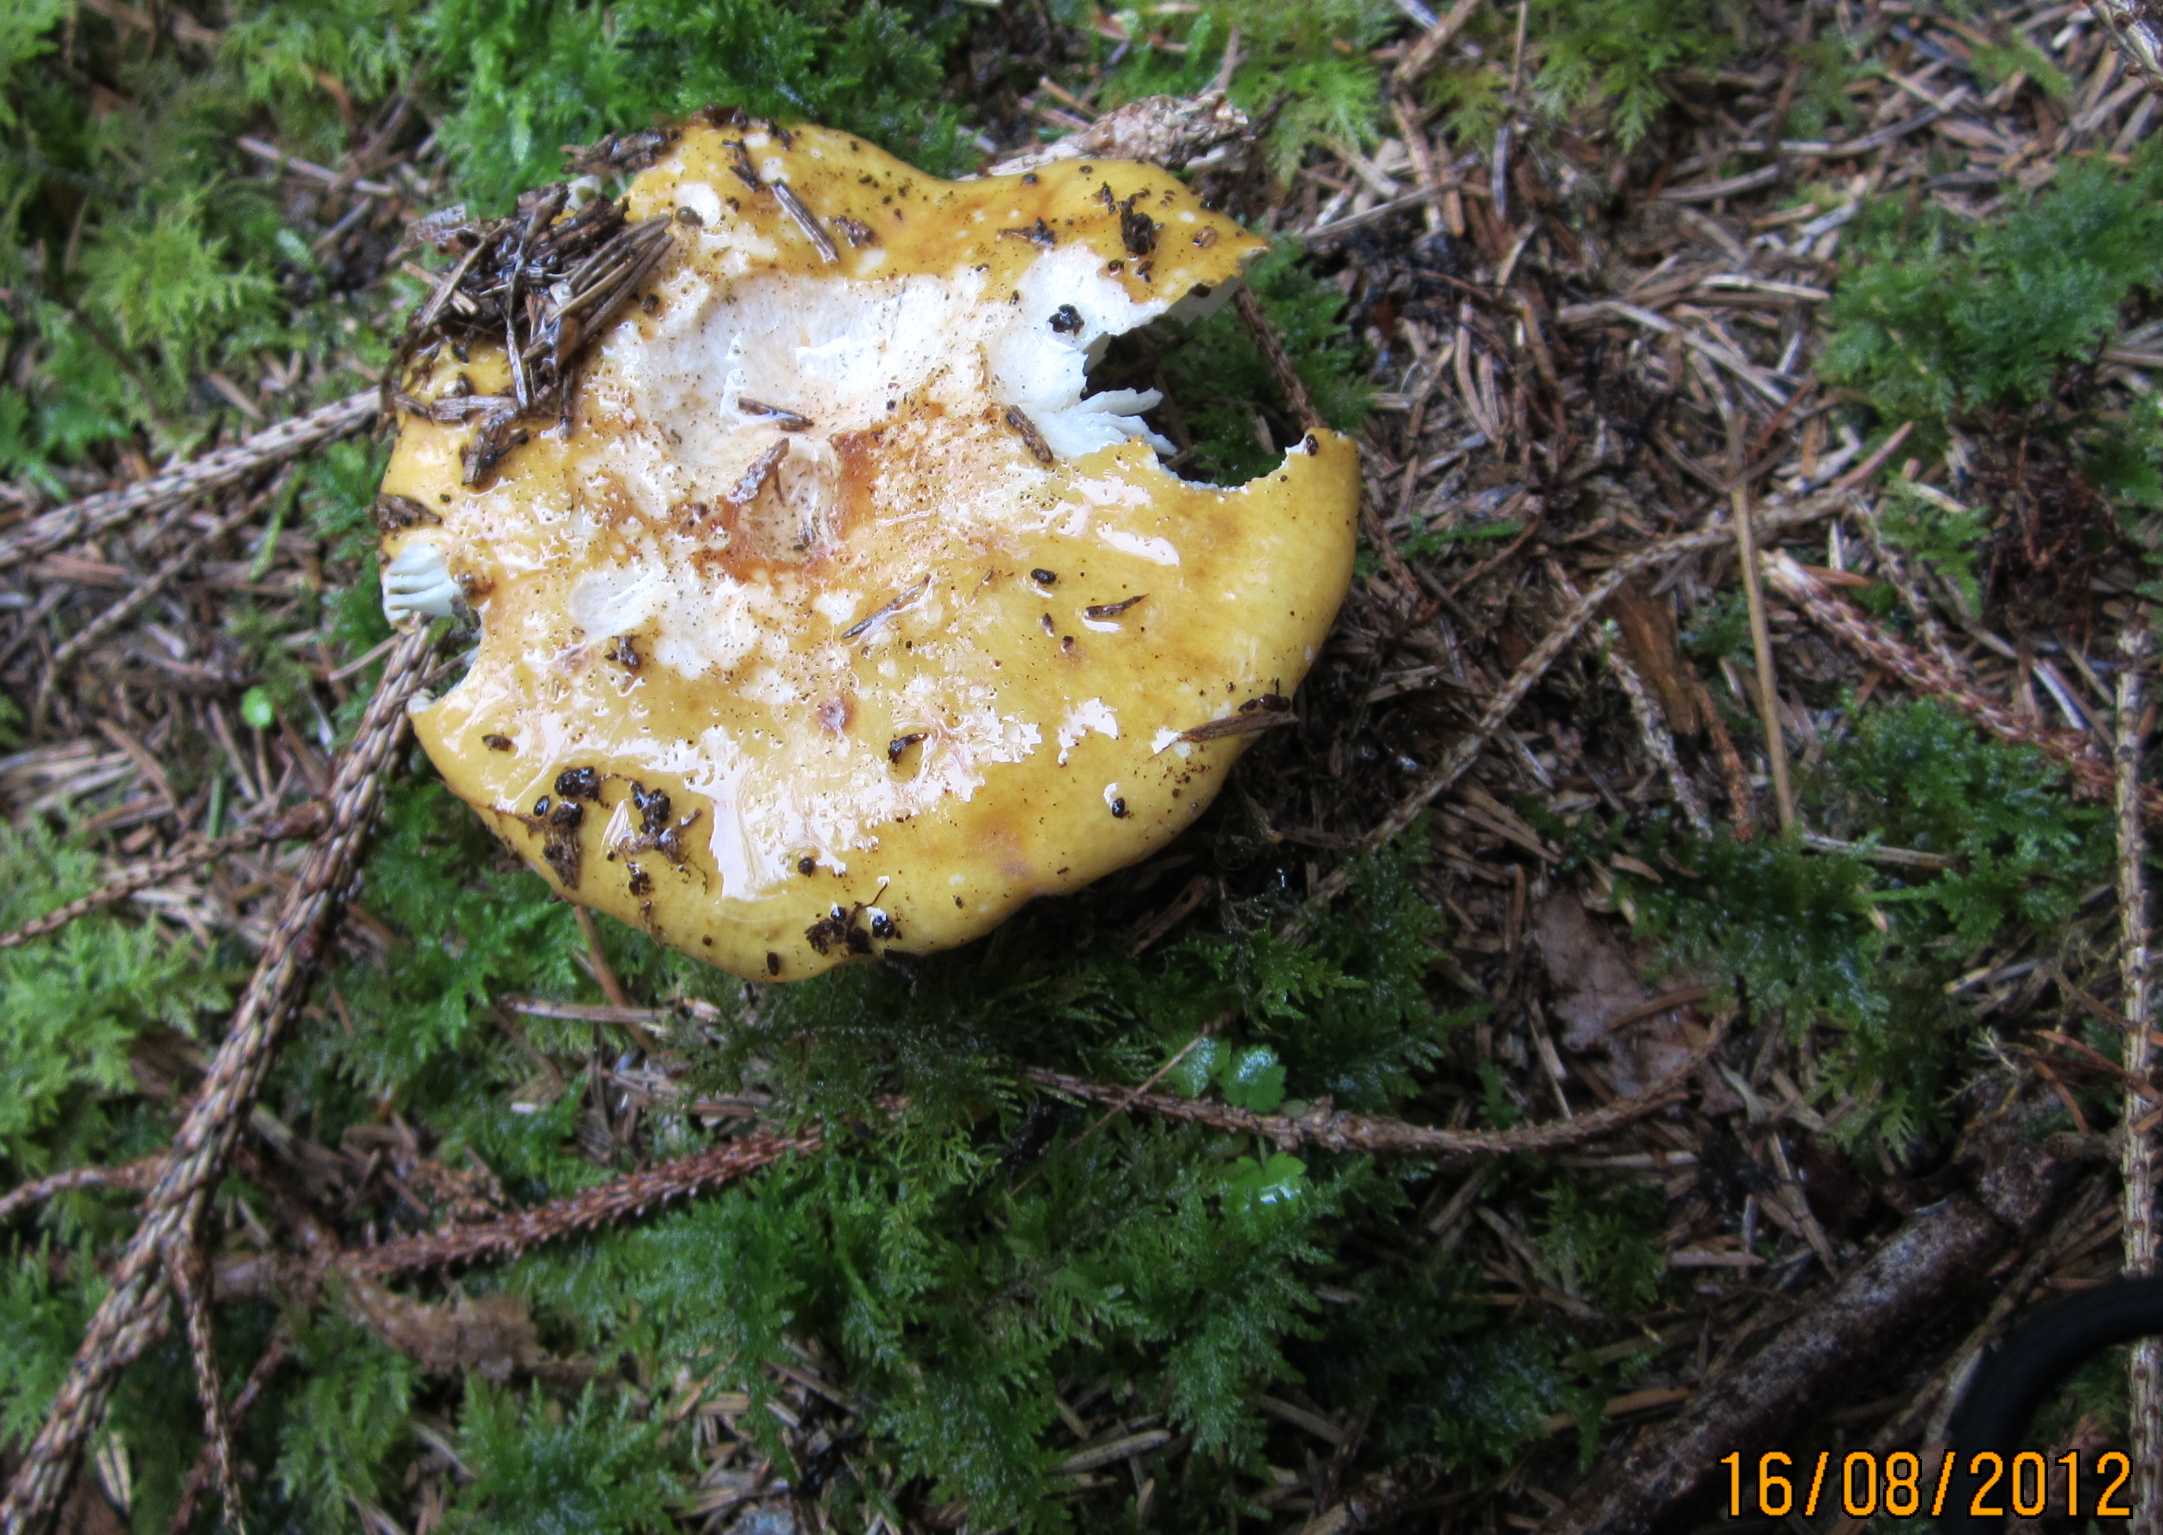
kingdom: Fungi
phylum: Basidiomycota
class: Agaricomycetes
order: Russulales
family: Russulaceae
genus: Russula
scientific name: Russula ochroleuca
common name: okkergul skørhat
